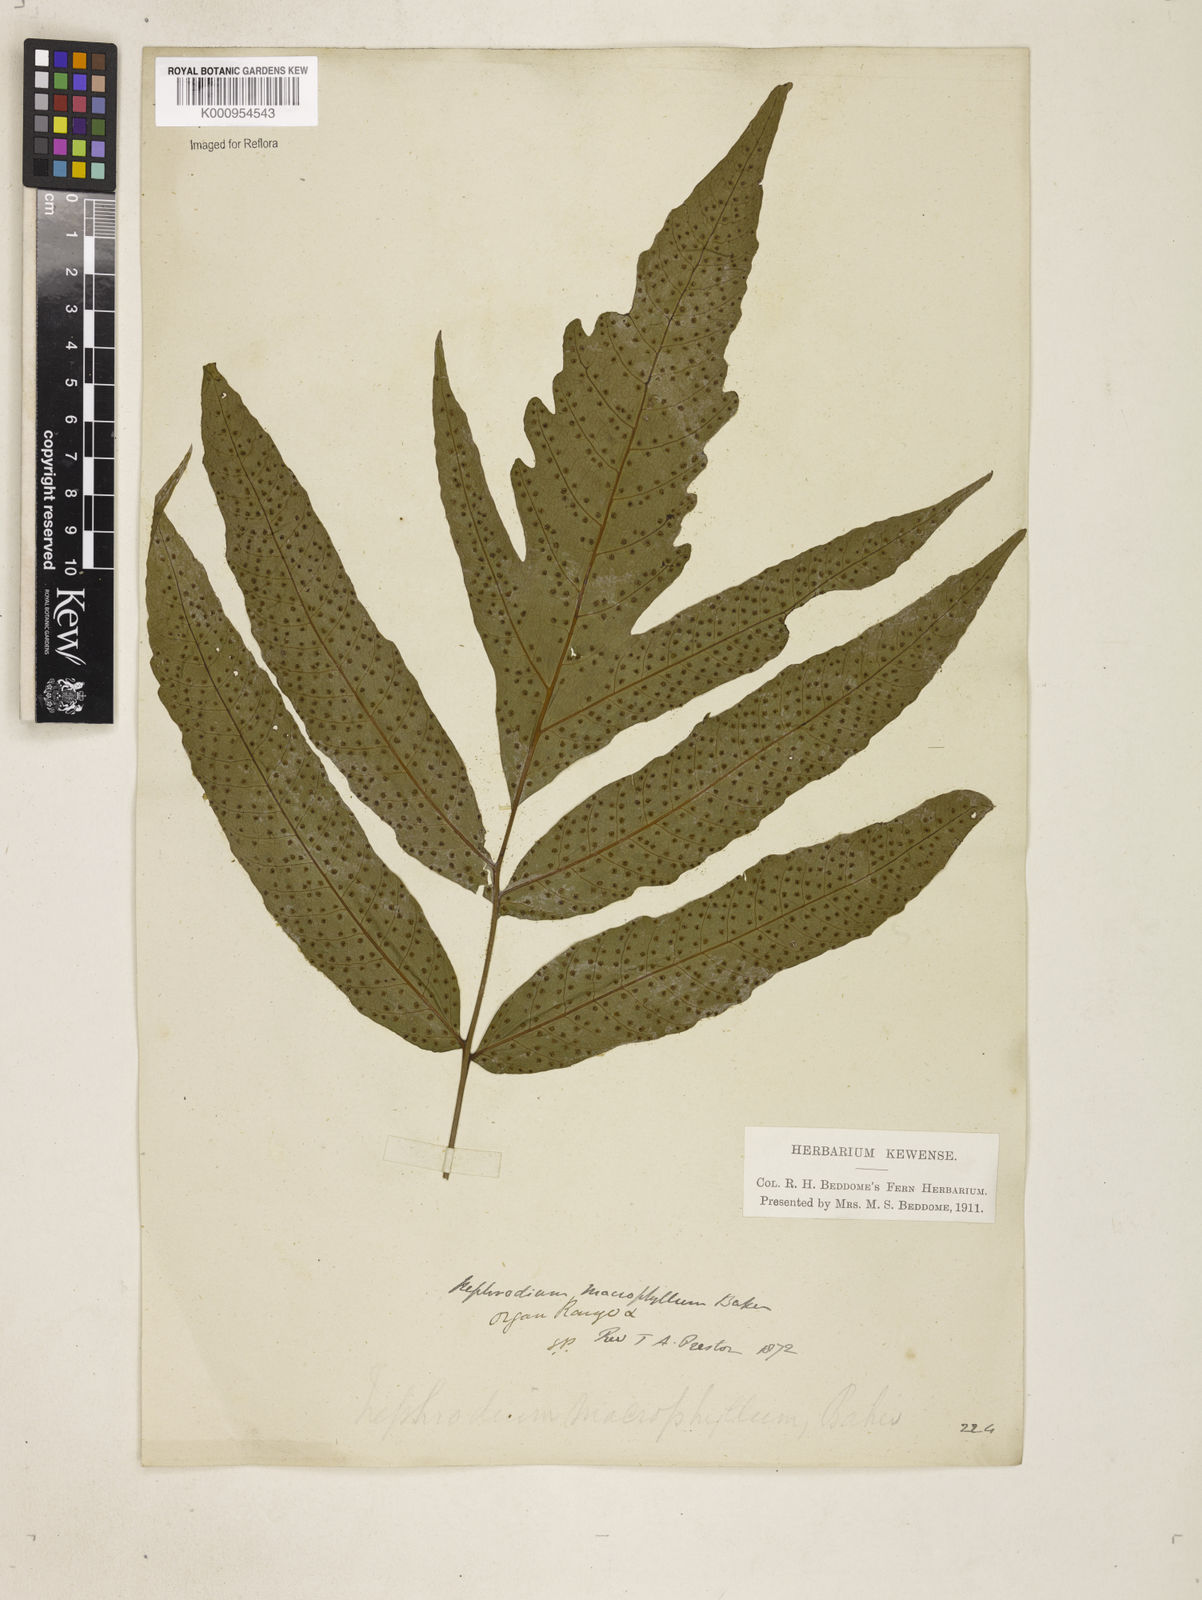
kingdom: Plantae
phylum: Tracheophyta
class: Polypodiopsida
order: Polypodiales
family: Tectariaceae
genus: Tectaria
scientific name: Tectaria incisa
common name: Incised halberd fern
